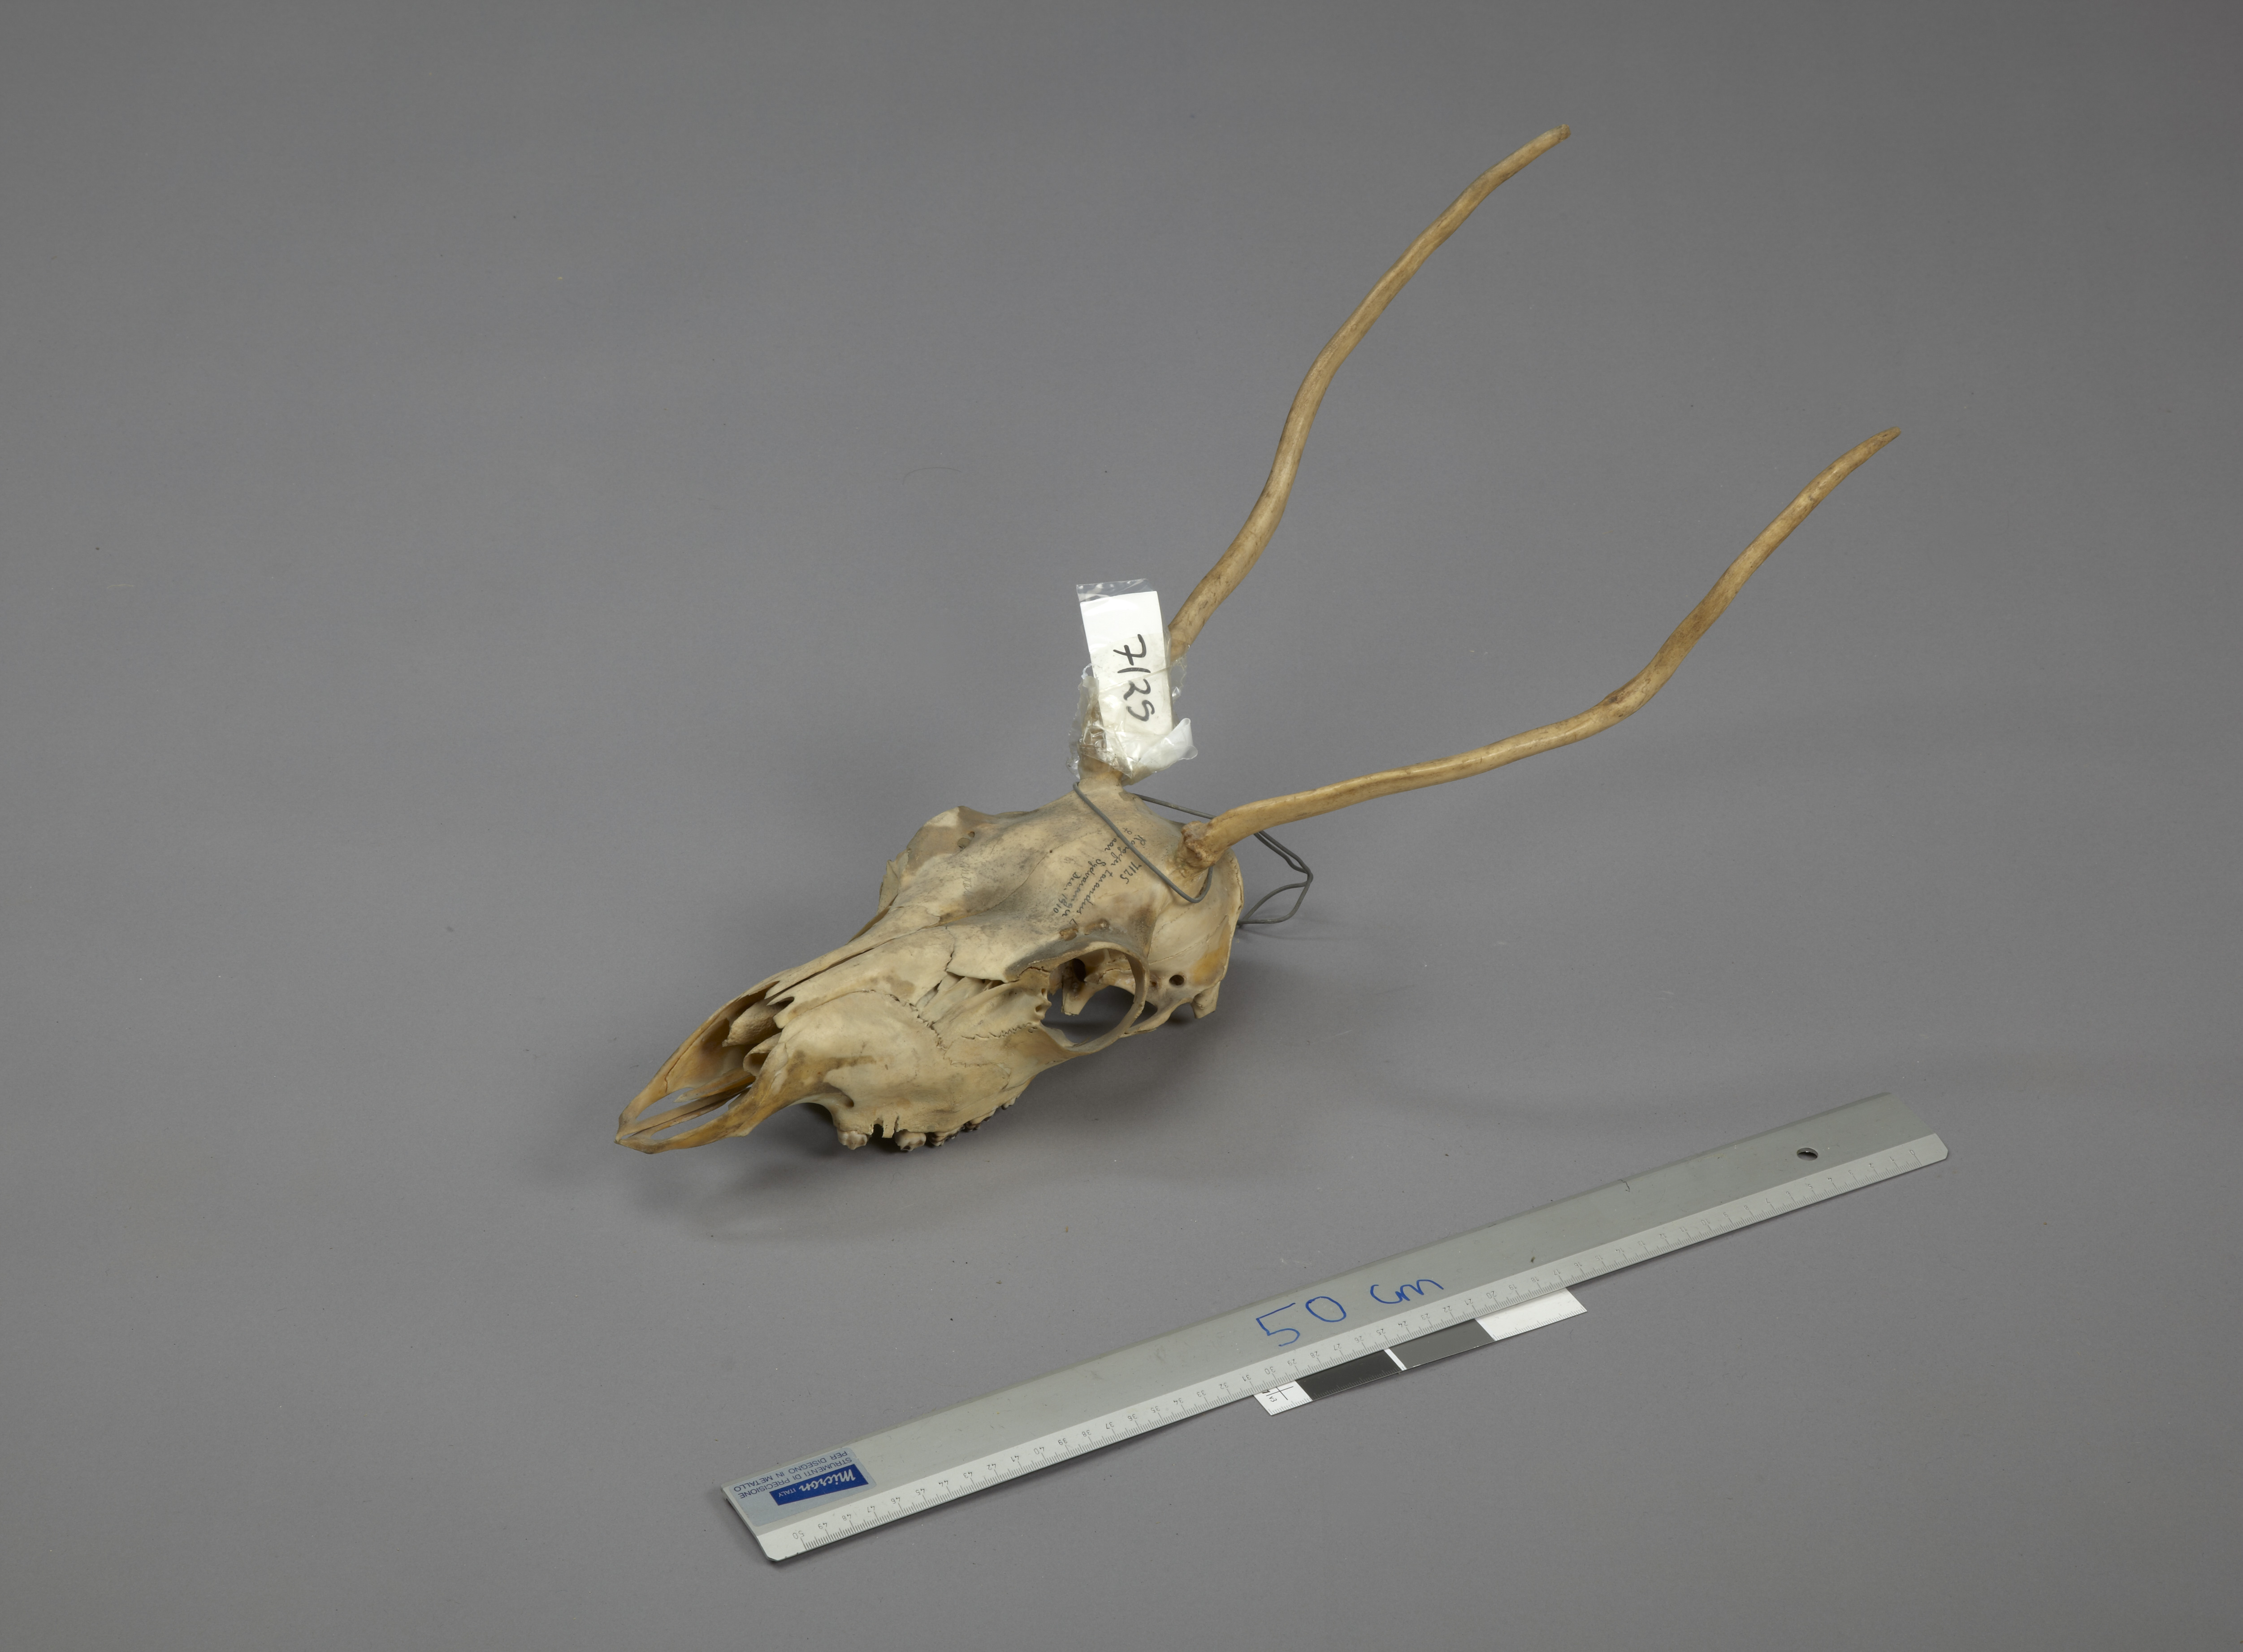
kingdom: Animalia
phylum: Chordata
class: Mammalia
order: Artiodactyla
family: Cervidae
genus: Rangifer
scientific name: Rangifer tarandus
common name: Reindeer
